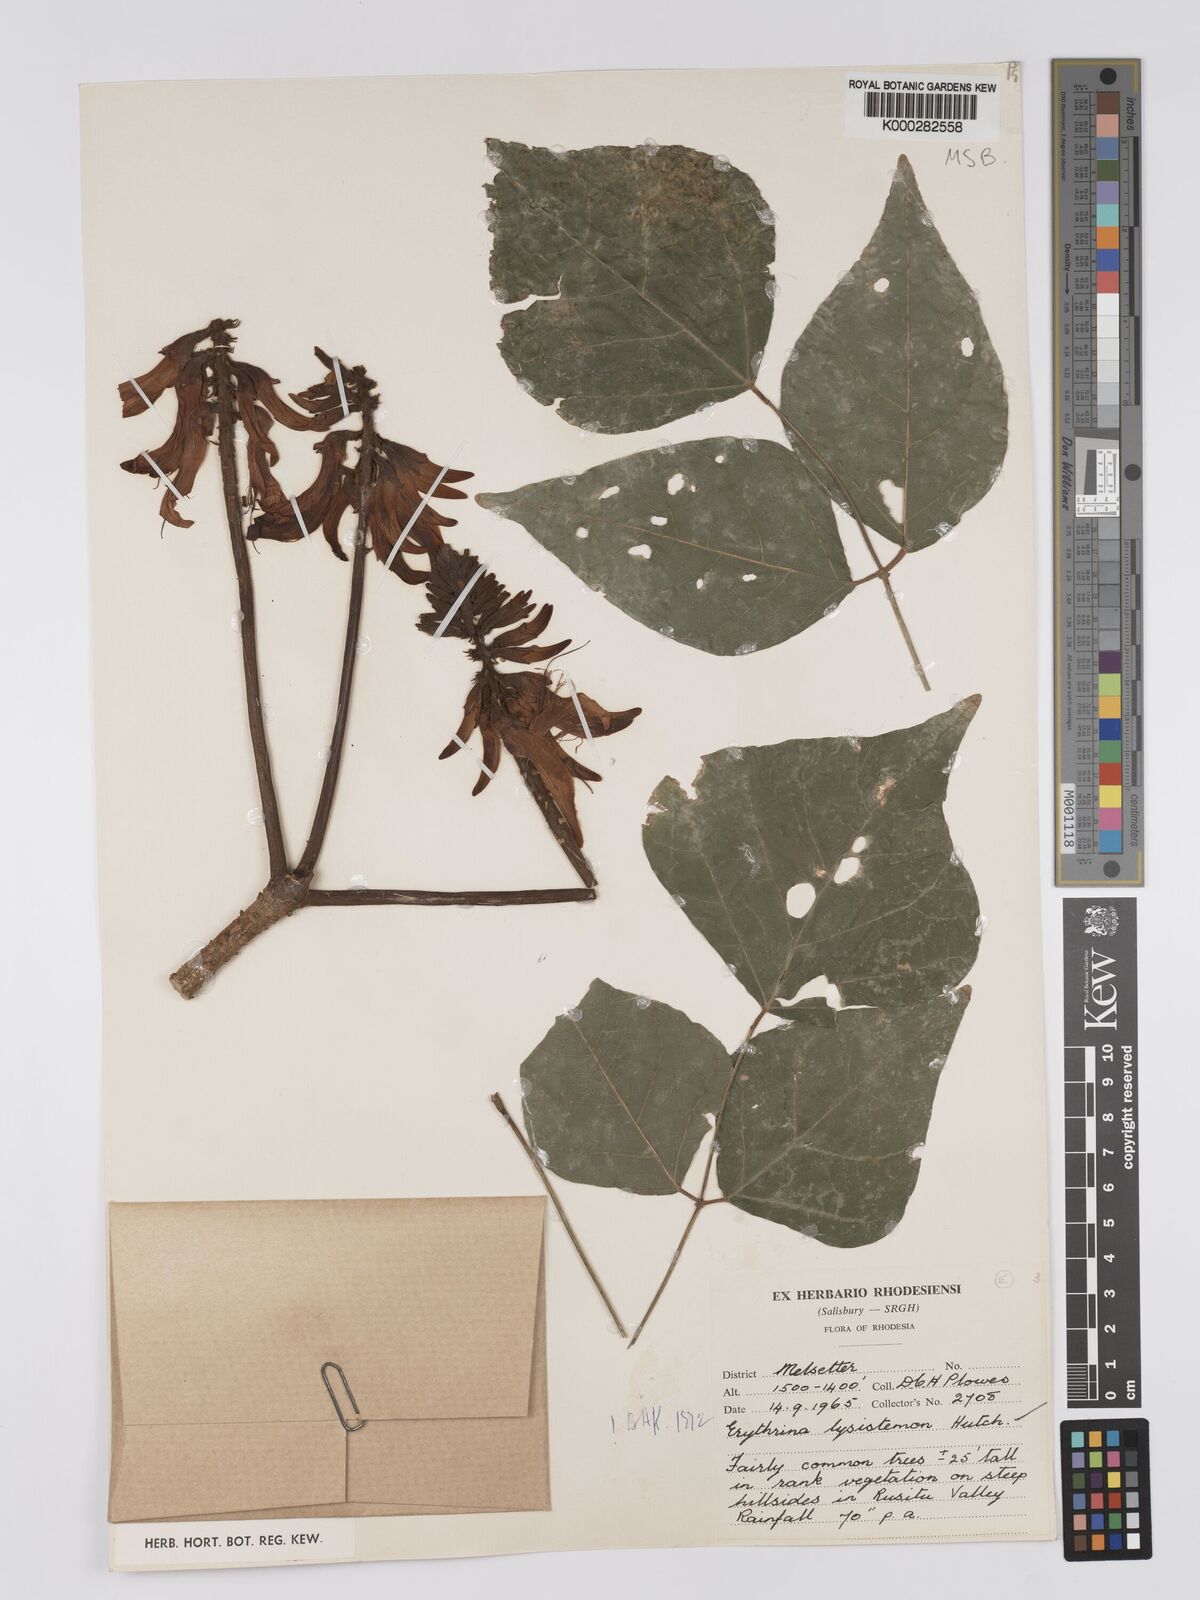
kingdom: Plantae
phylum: Tracheophyta
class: Magnoliopsida
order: Fabales
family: Fabaceae
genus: Erythrina
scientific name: Erythrina lysistemon
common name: Common coral tree
